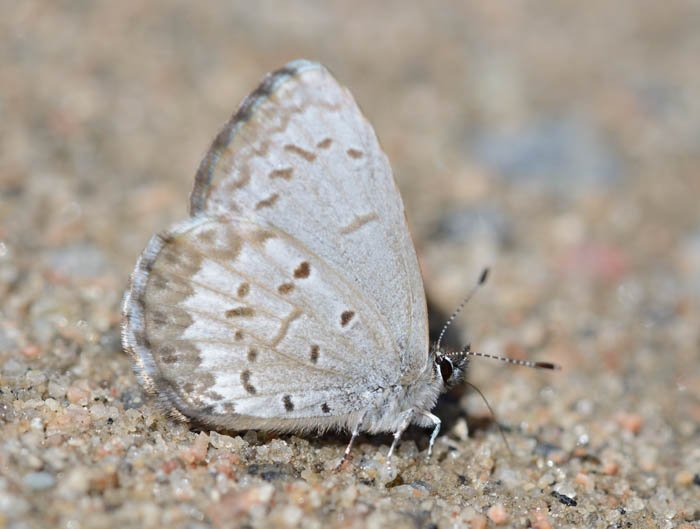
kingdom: Animalia
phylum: Arthropoda
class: Insecta
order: Lepidoptera
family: Lycaenidae
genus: Celastrina
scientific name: Celastrina lucia
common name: Northern Spring Azure
